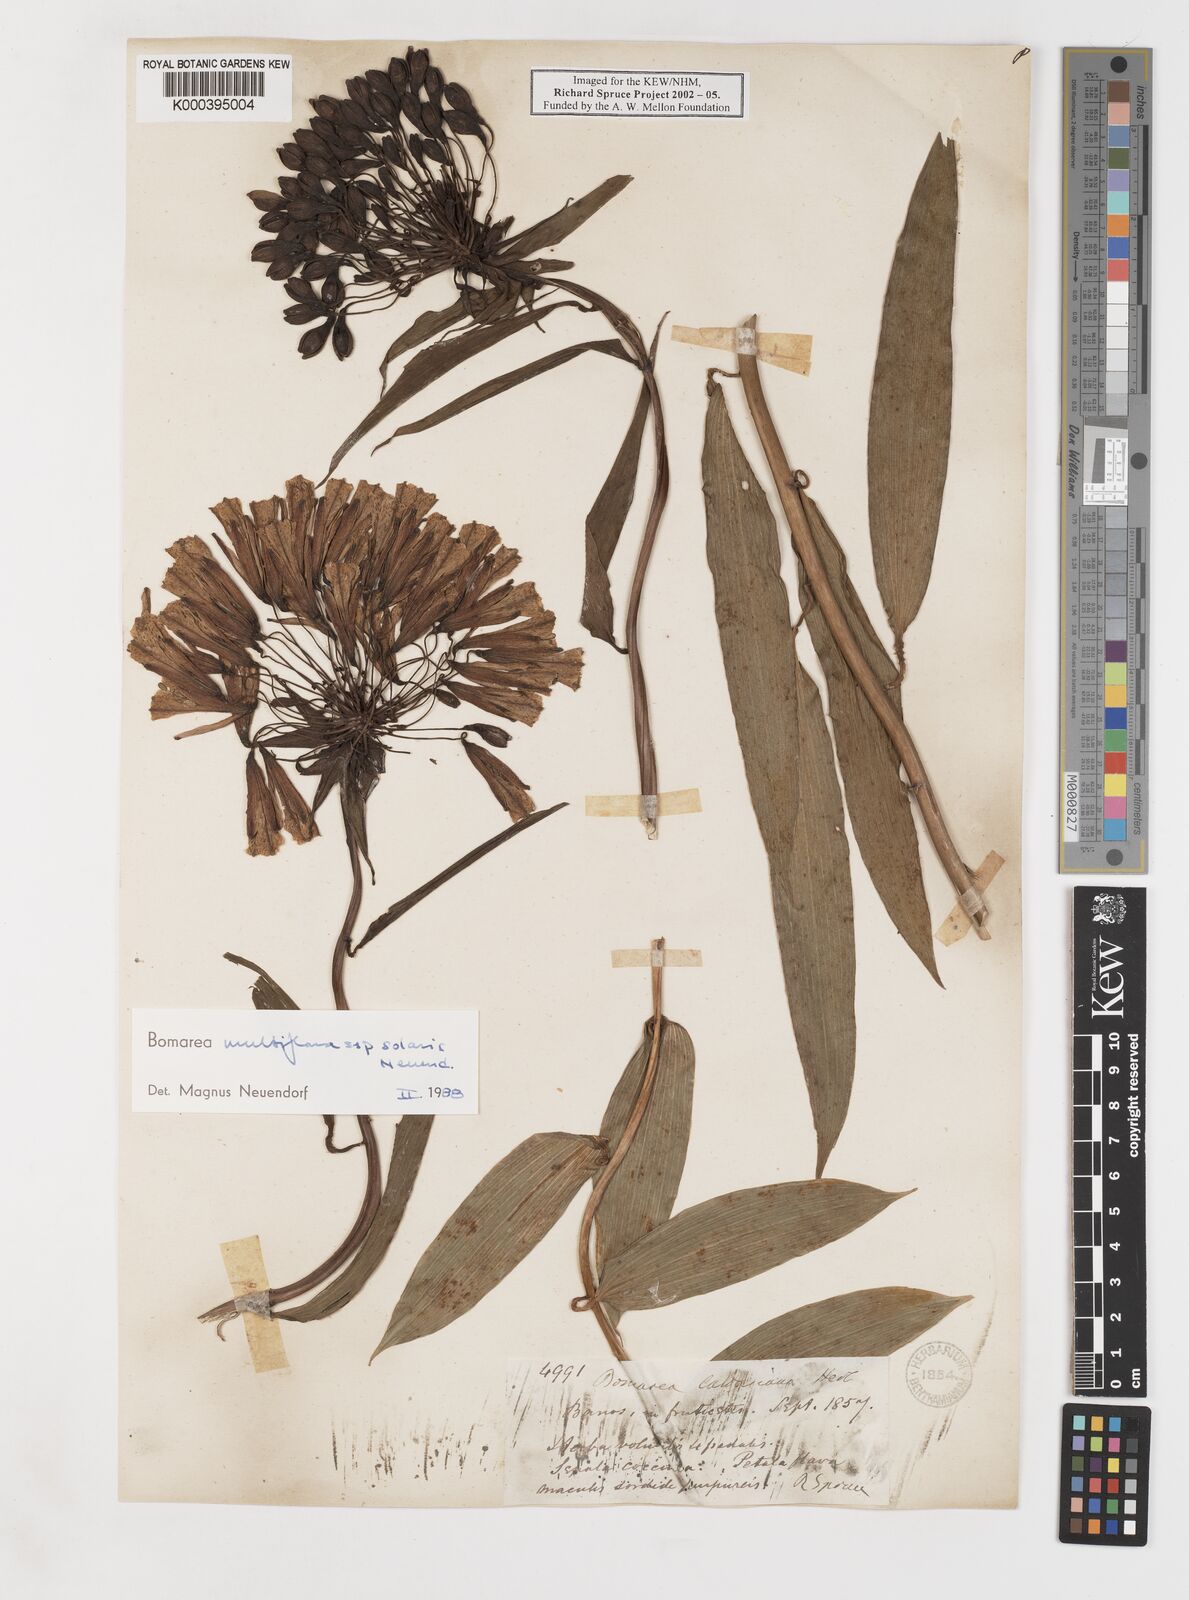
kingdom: Plantae
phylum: Tracheophyta
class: Liliopsida
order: Liliales
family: Alstroemeriaceae
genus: Bomarea
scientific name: Bomarea multiflora
